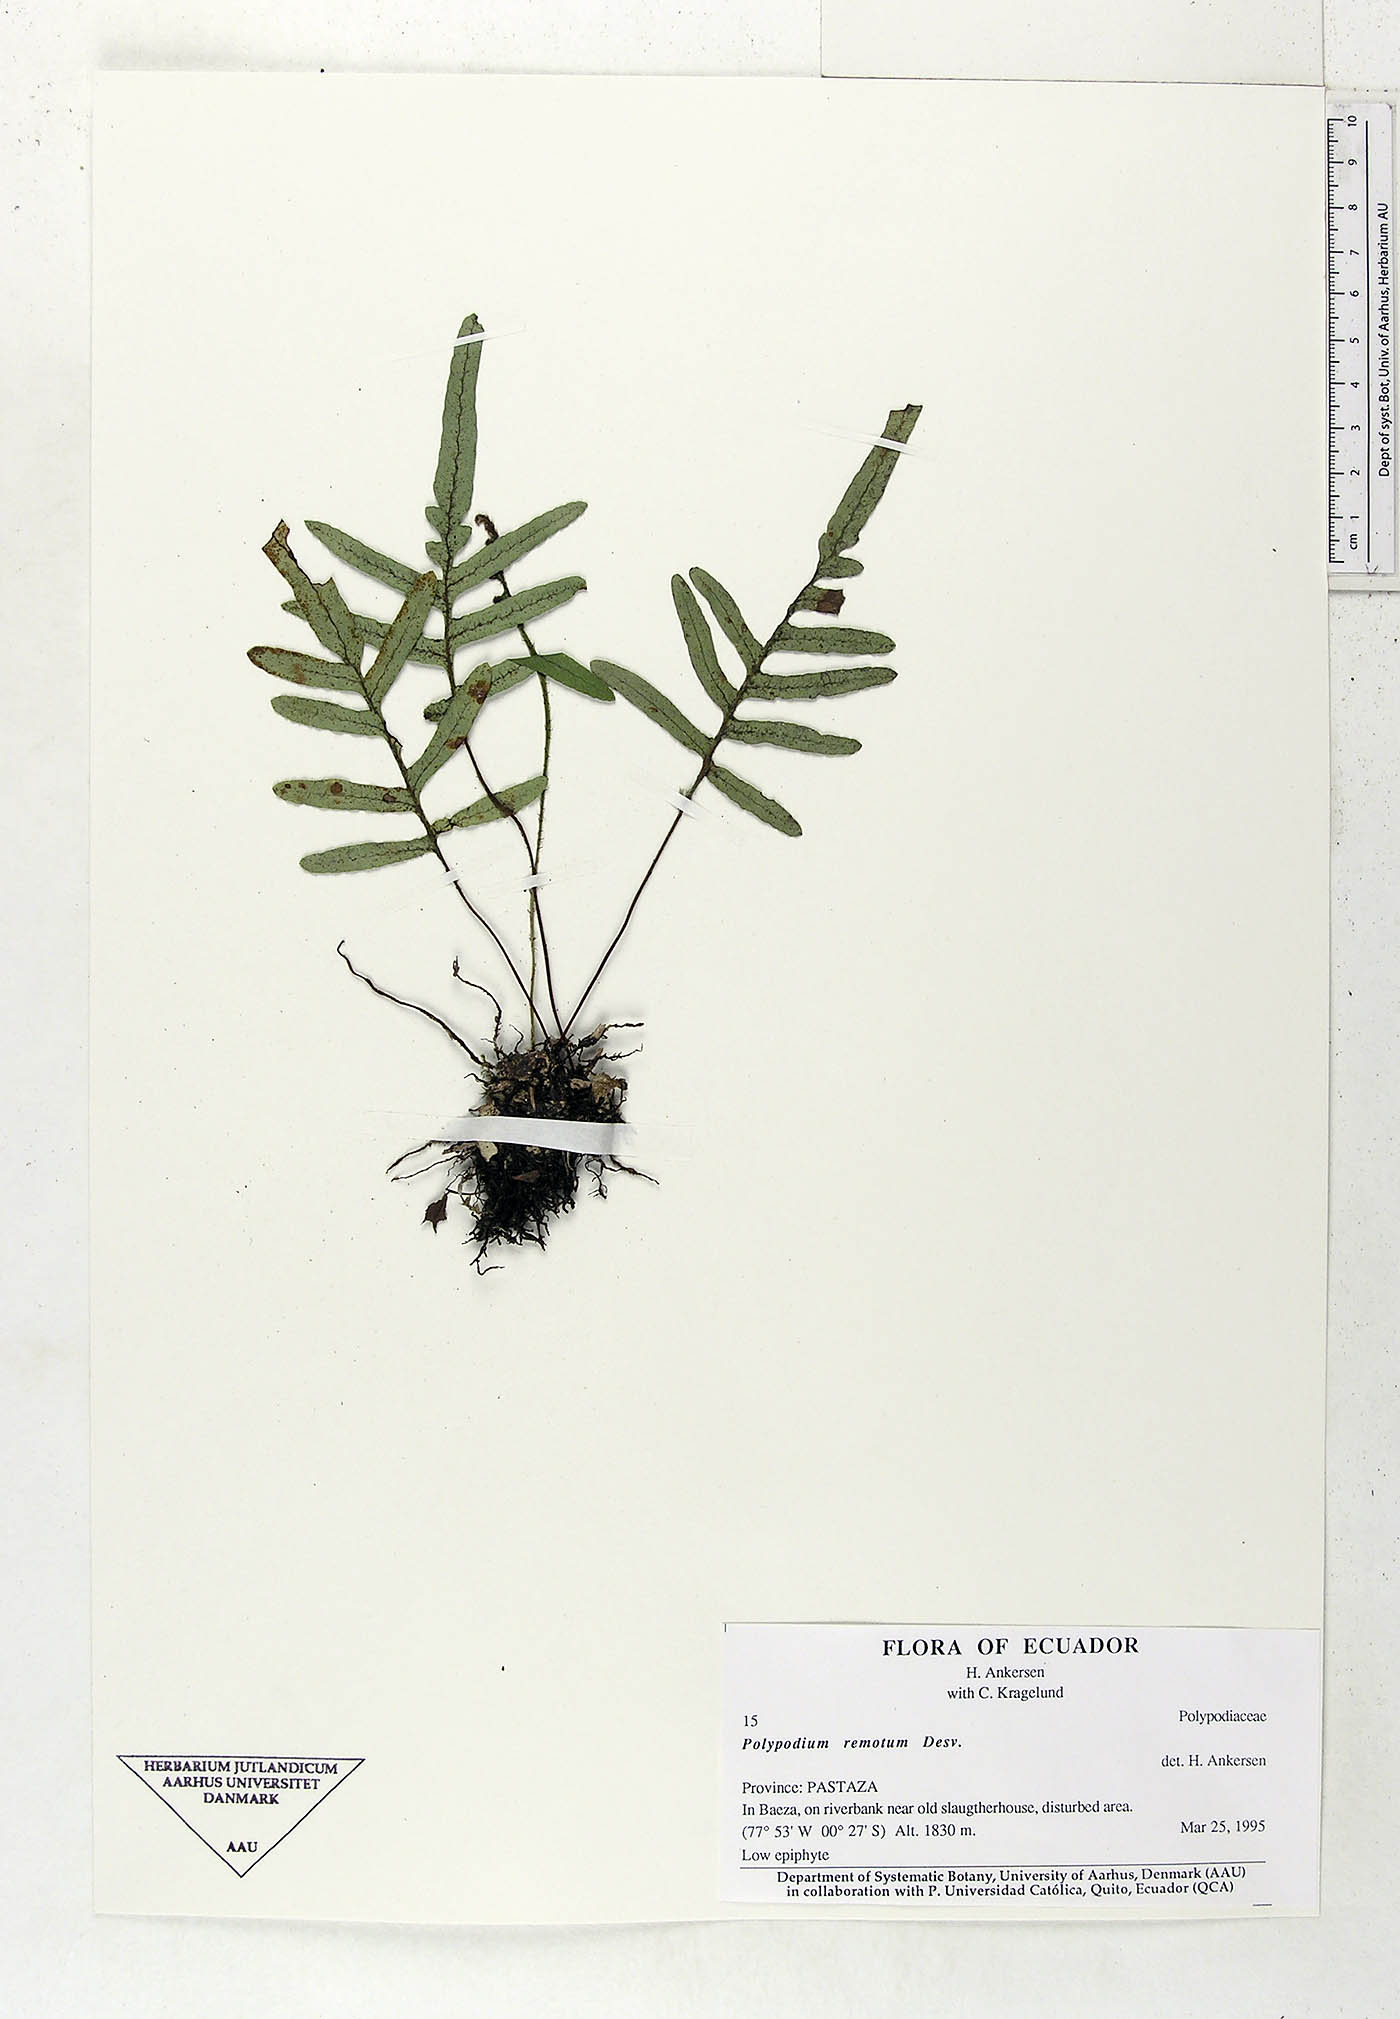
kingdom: Plantae
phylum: Tracheophyta
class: Polypodiopsida
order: Polypodiales
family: Polypodiaceae
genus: Pleopeltis
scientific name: Pleopeltis remota
